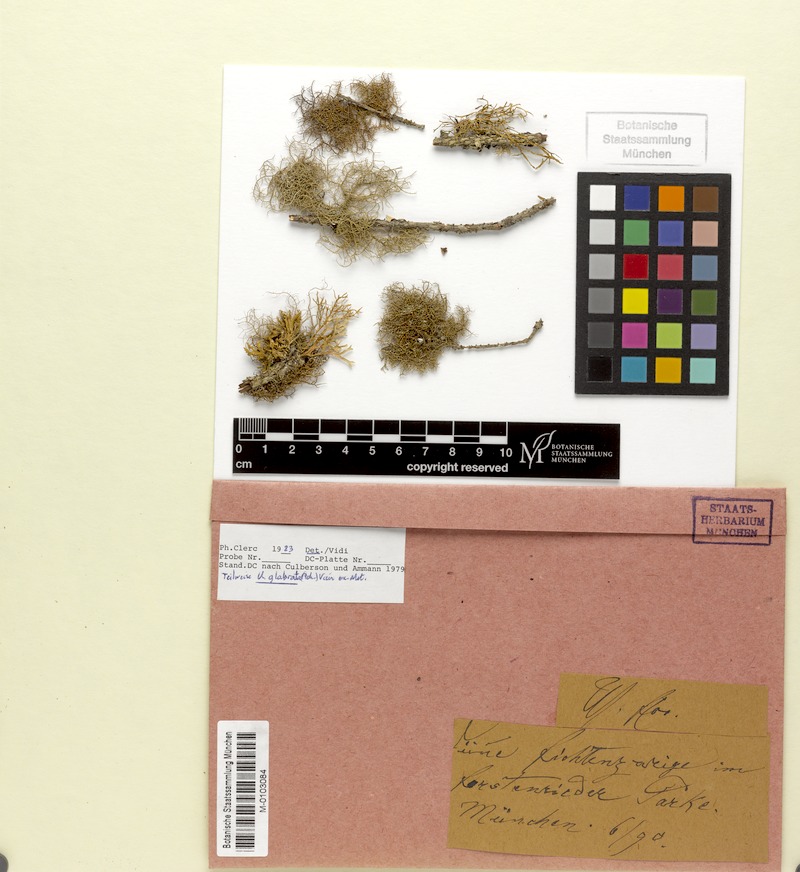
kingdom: Fungi
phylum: Ascomycota
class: Lecanoromycetes
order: Lecanorales
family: Parmeliaceae
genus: Usnea
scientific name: Usnea glabrata
